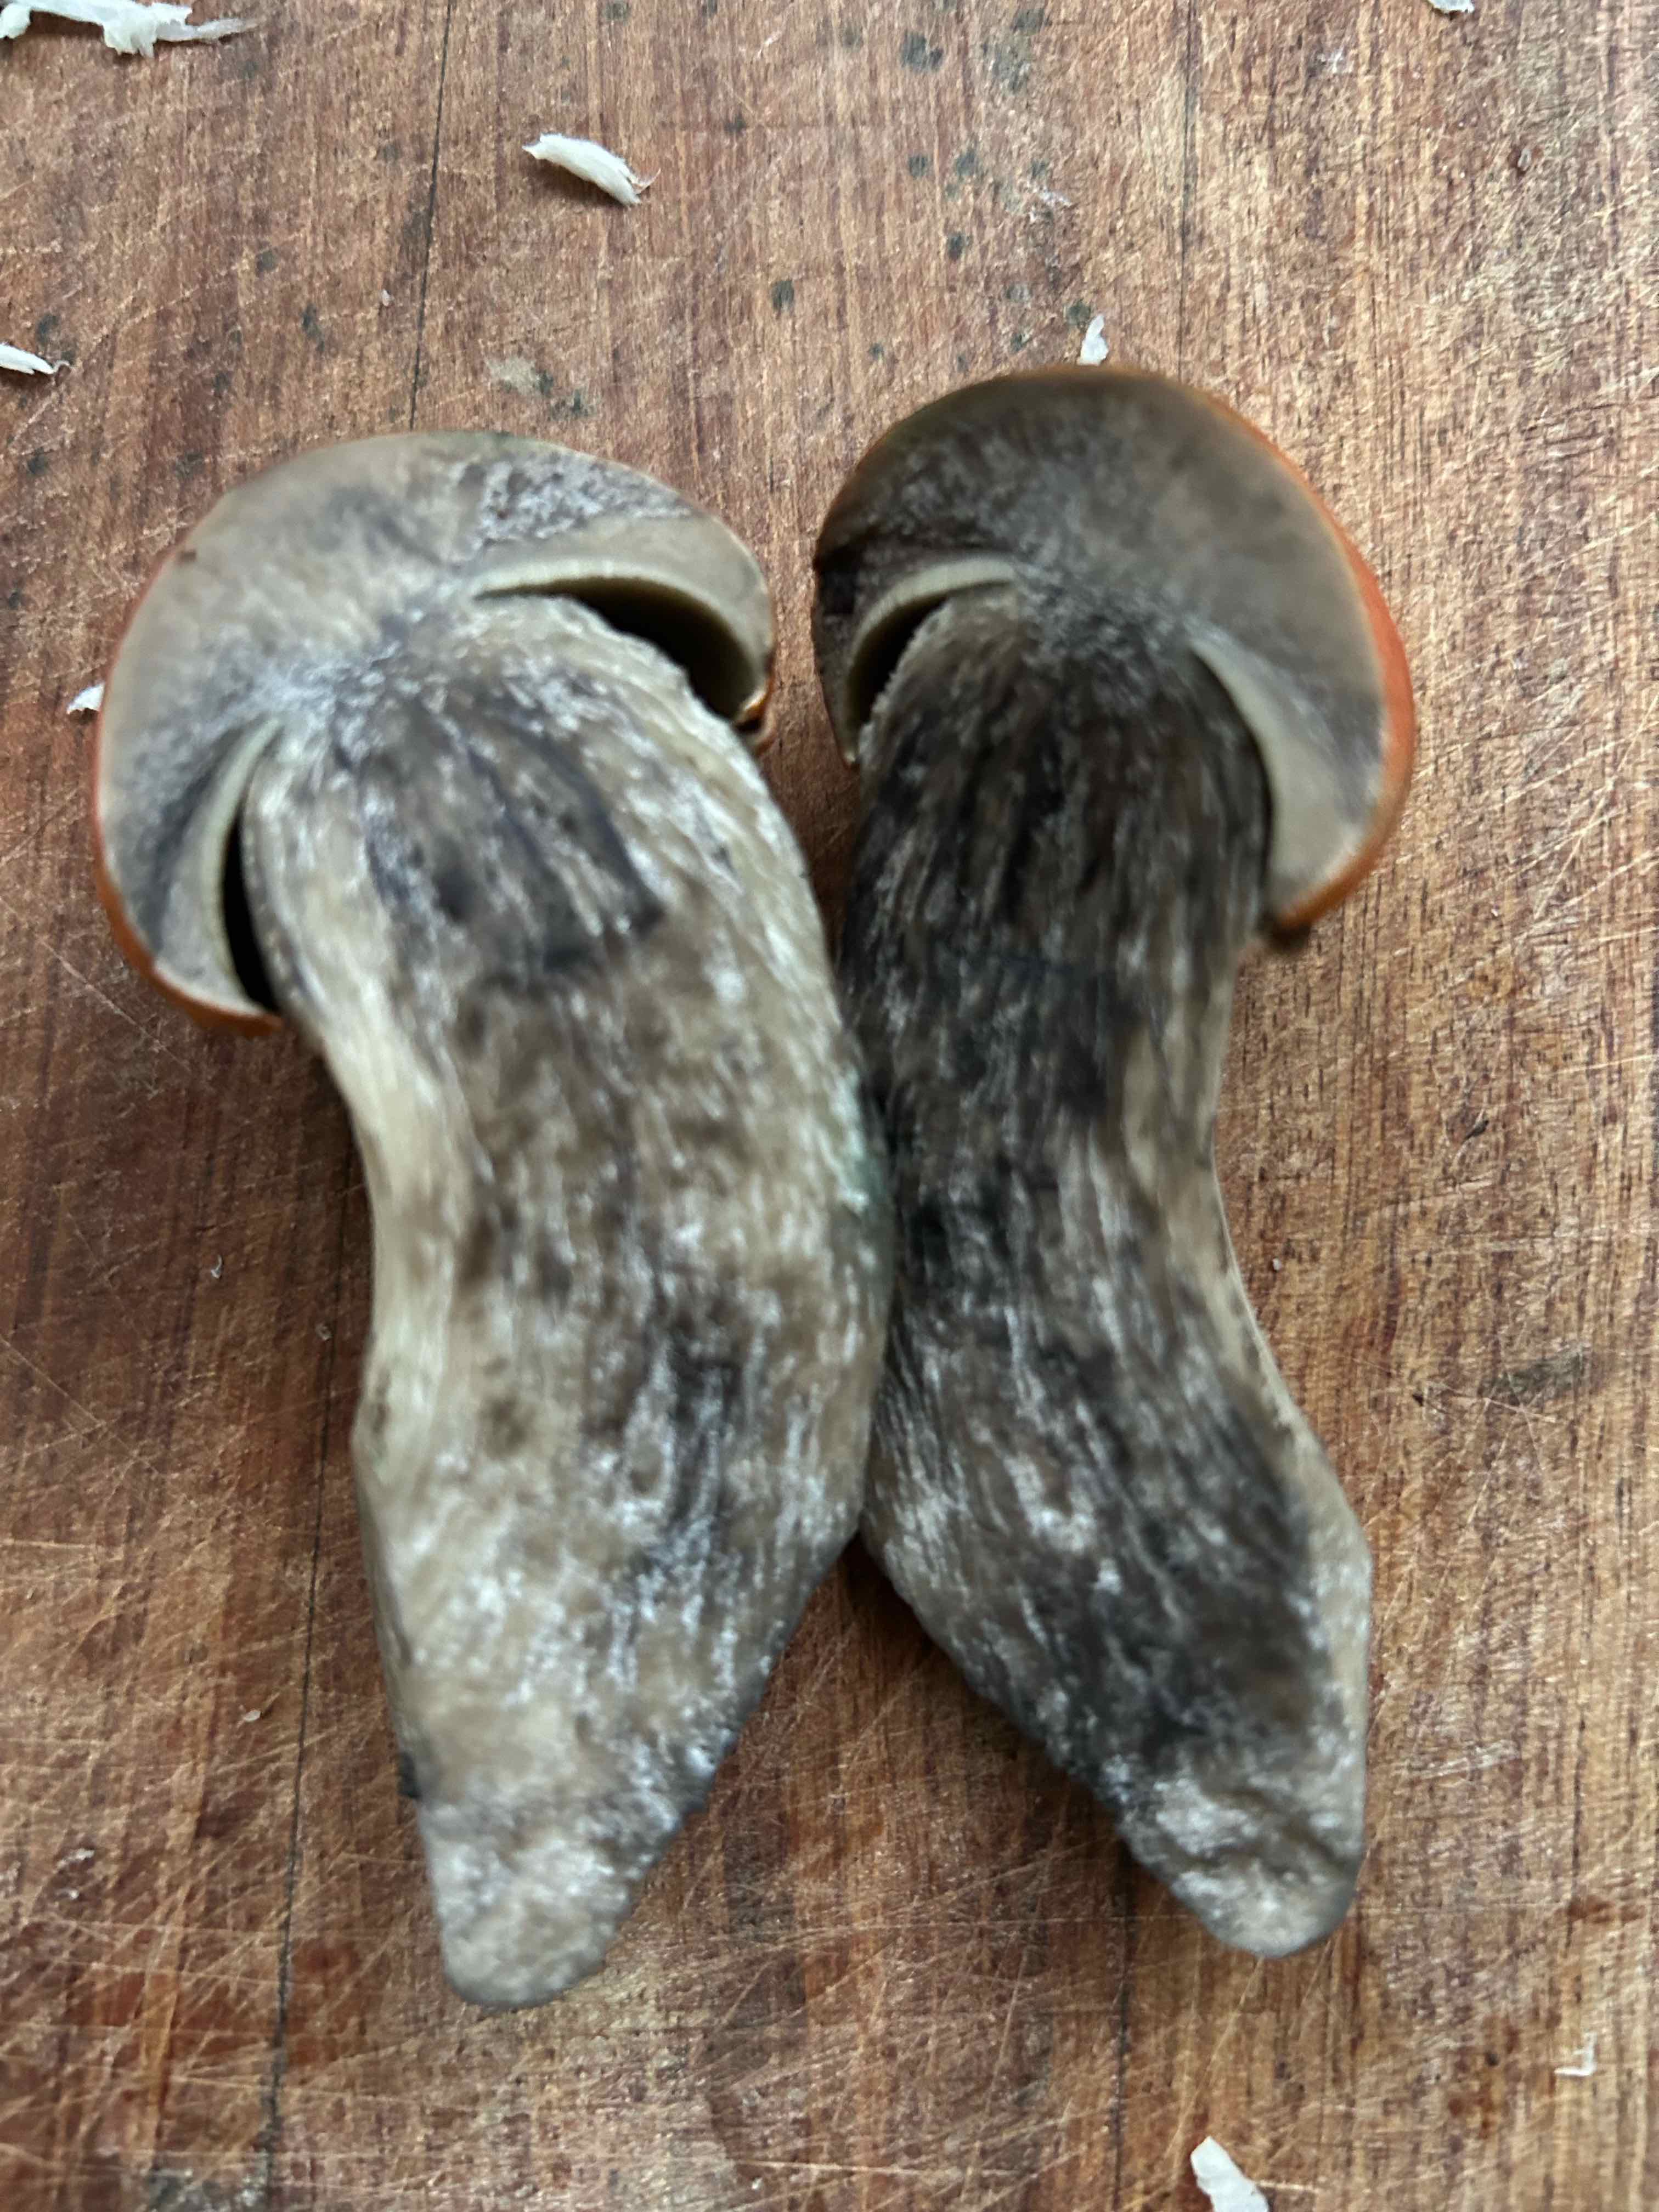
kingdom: Fungi
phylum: Basidiomycota
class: Agaricomycetes
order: Boletales
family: Boletaceae
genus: Leccinum
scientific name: Leccinum versipelle
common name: orange skælrørhat
